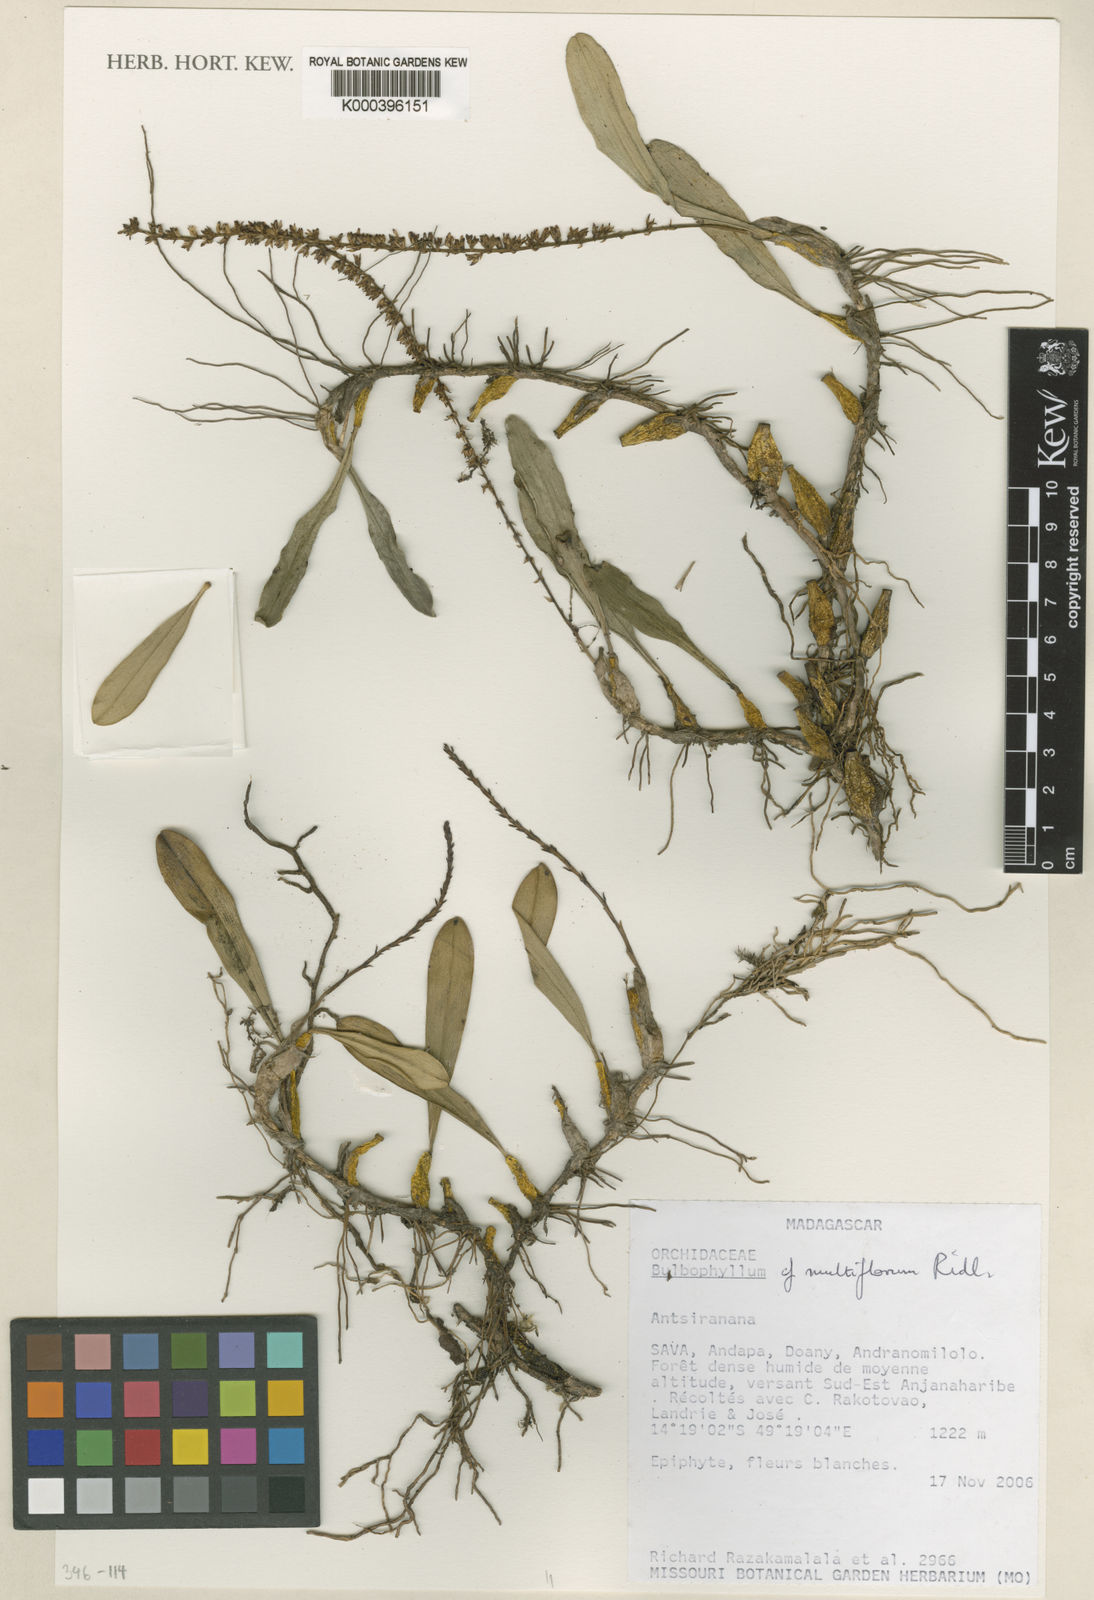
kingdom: Plantae
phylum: Tracheophyta
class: Liliopsida
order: Asparagales
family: Orchidaceae
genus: Bulbophyllum
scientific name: Bulbophyllum multiflorum
